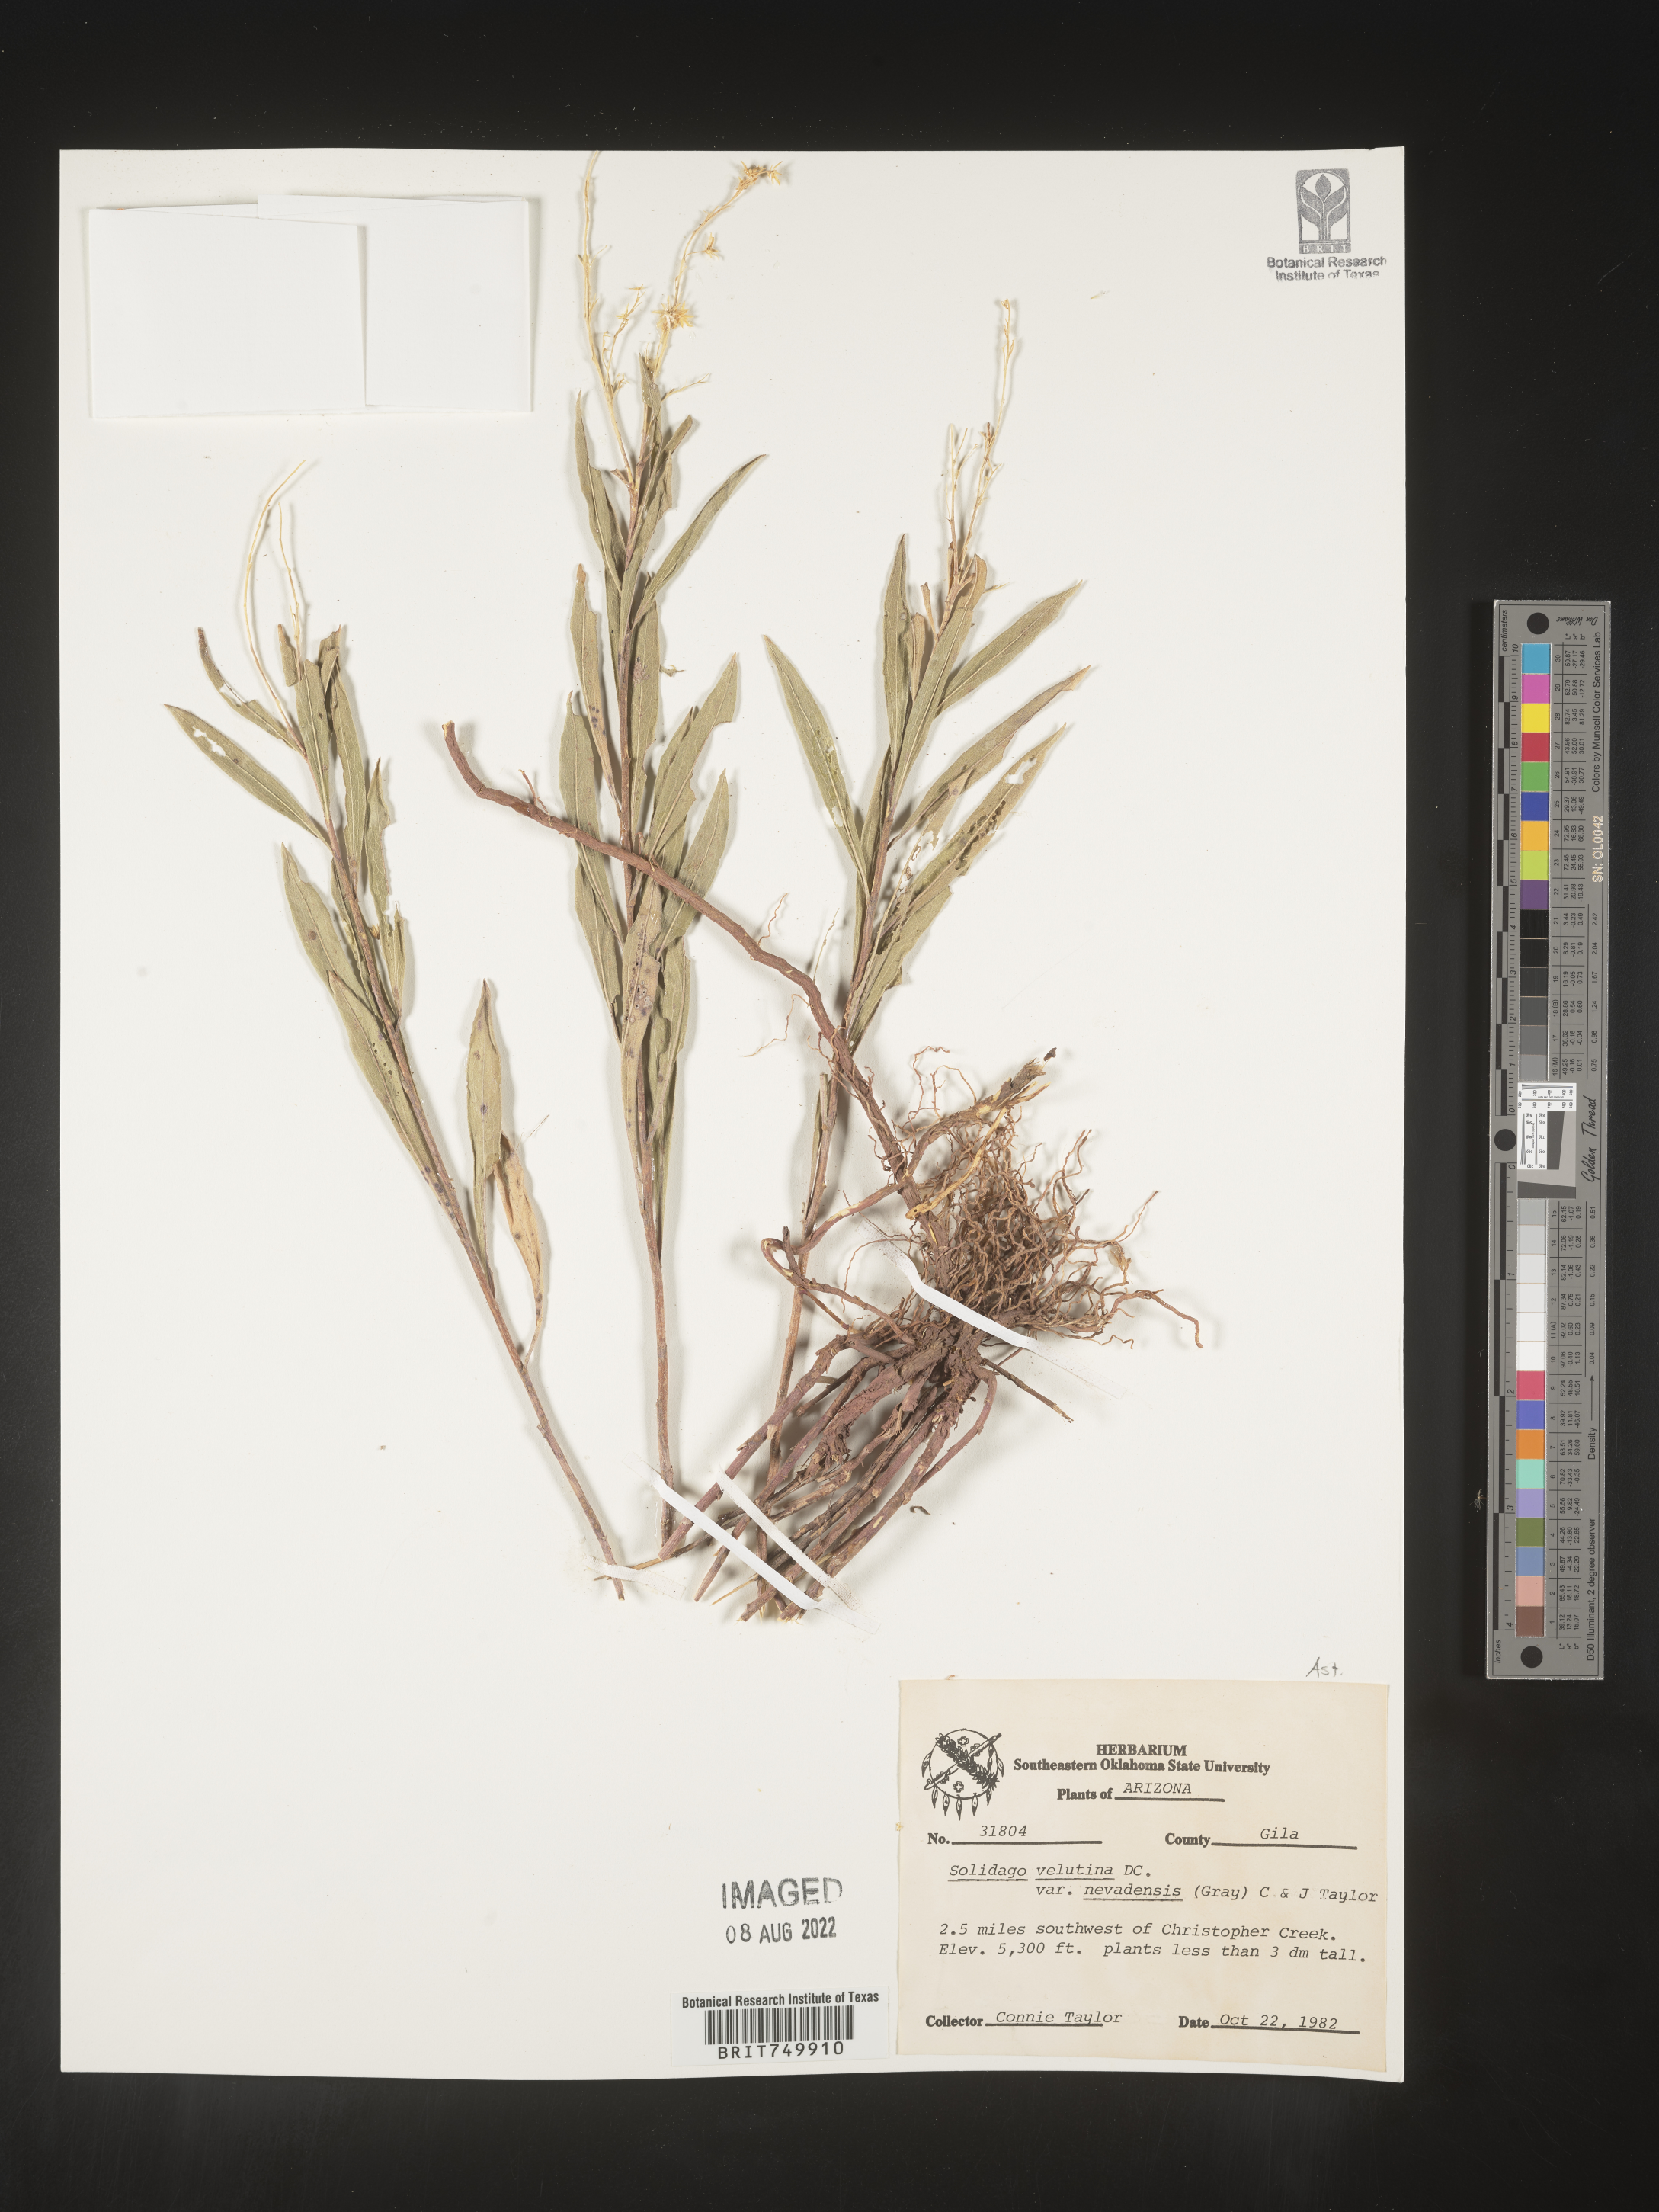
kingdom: Plantae
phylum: Tracheophyta
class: Magnoliopsida
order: Asterales
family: Asteraceae
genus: Solidago
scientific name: Solidago velutina
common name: Three-nerve goldenrod
